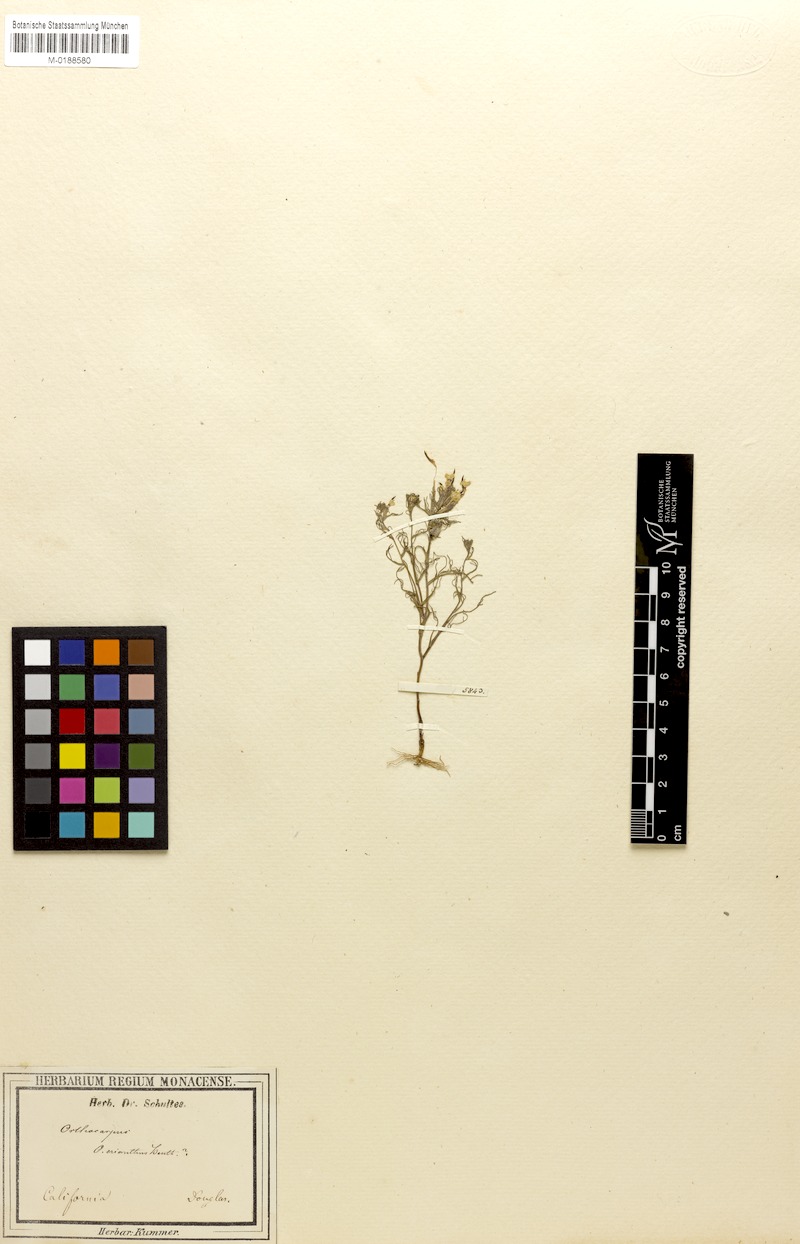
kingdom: Plantae
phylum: Tracheophyta
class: Magnoliopsida
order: Lamiales
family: Orobanchaceae
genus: Triphysaria
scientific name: Triphysaria eriantha
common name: Johnny-tuck
